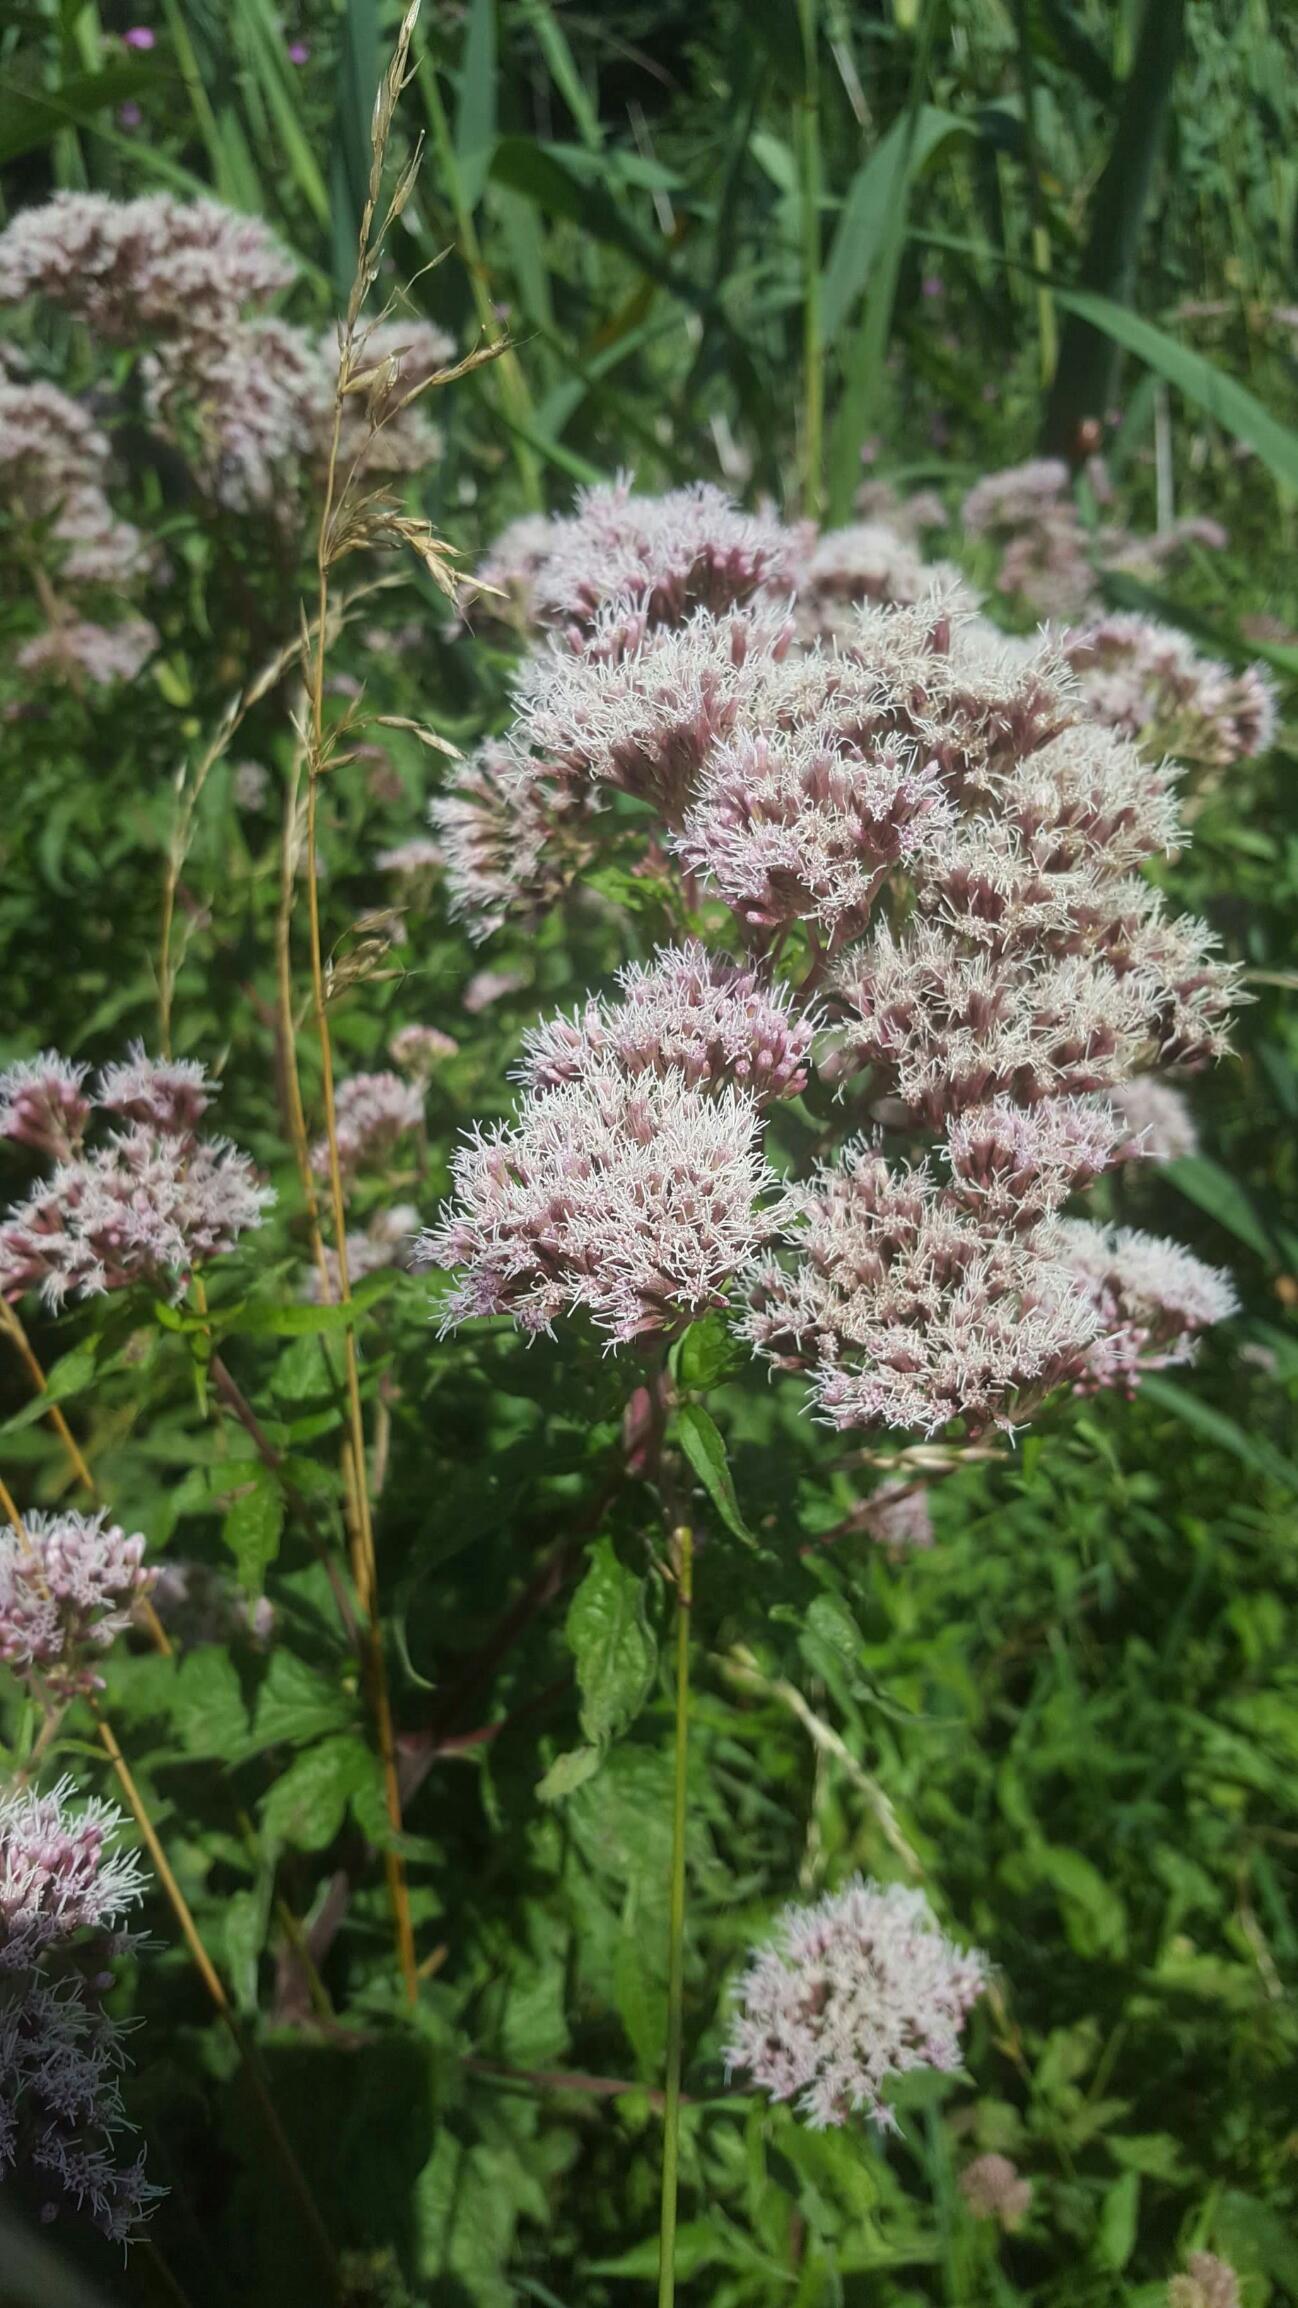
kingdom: Plantae
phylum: Tracheophyta
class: Magnoliopsida
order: Asterales
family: Asteraceae
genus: Eupatorium
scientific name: Eupatorium cannabinum
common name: Hjortetrøst
